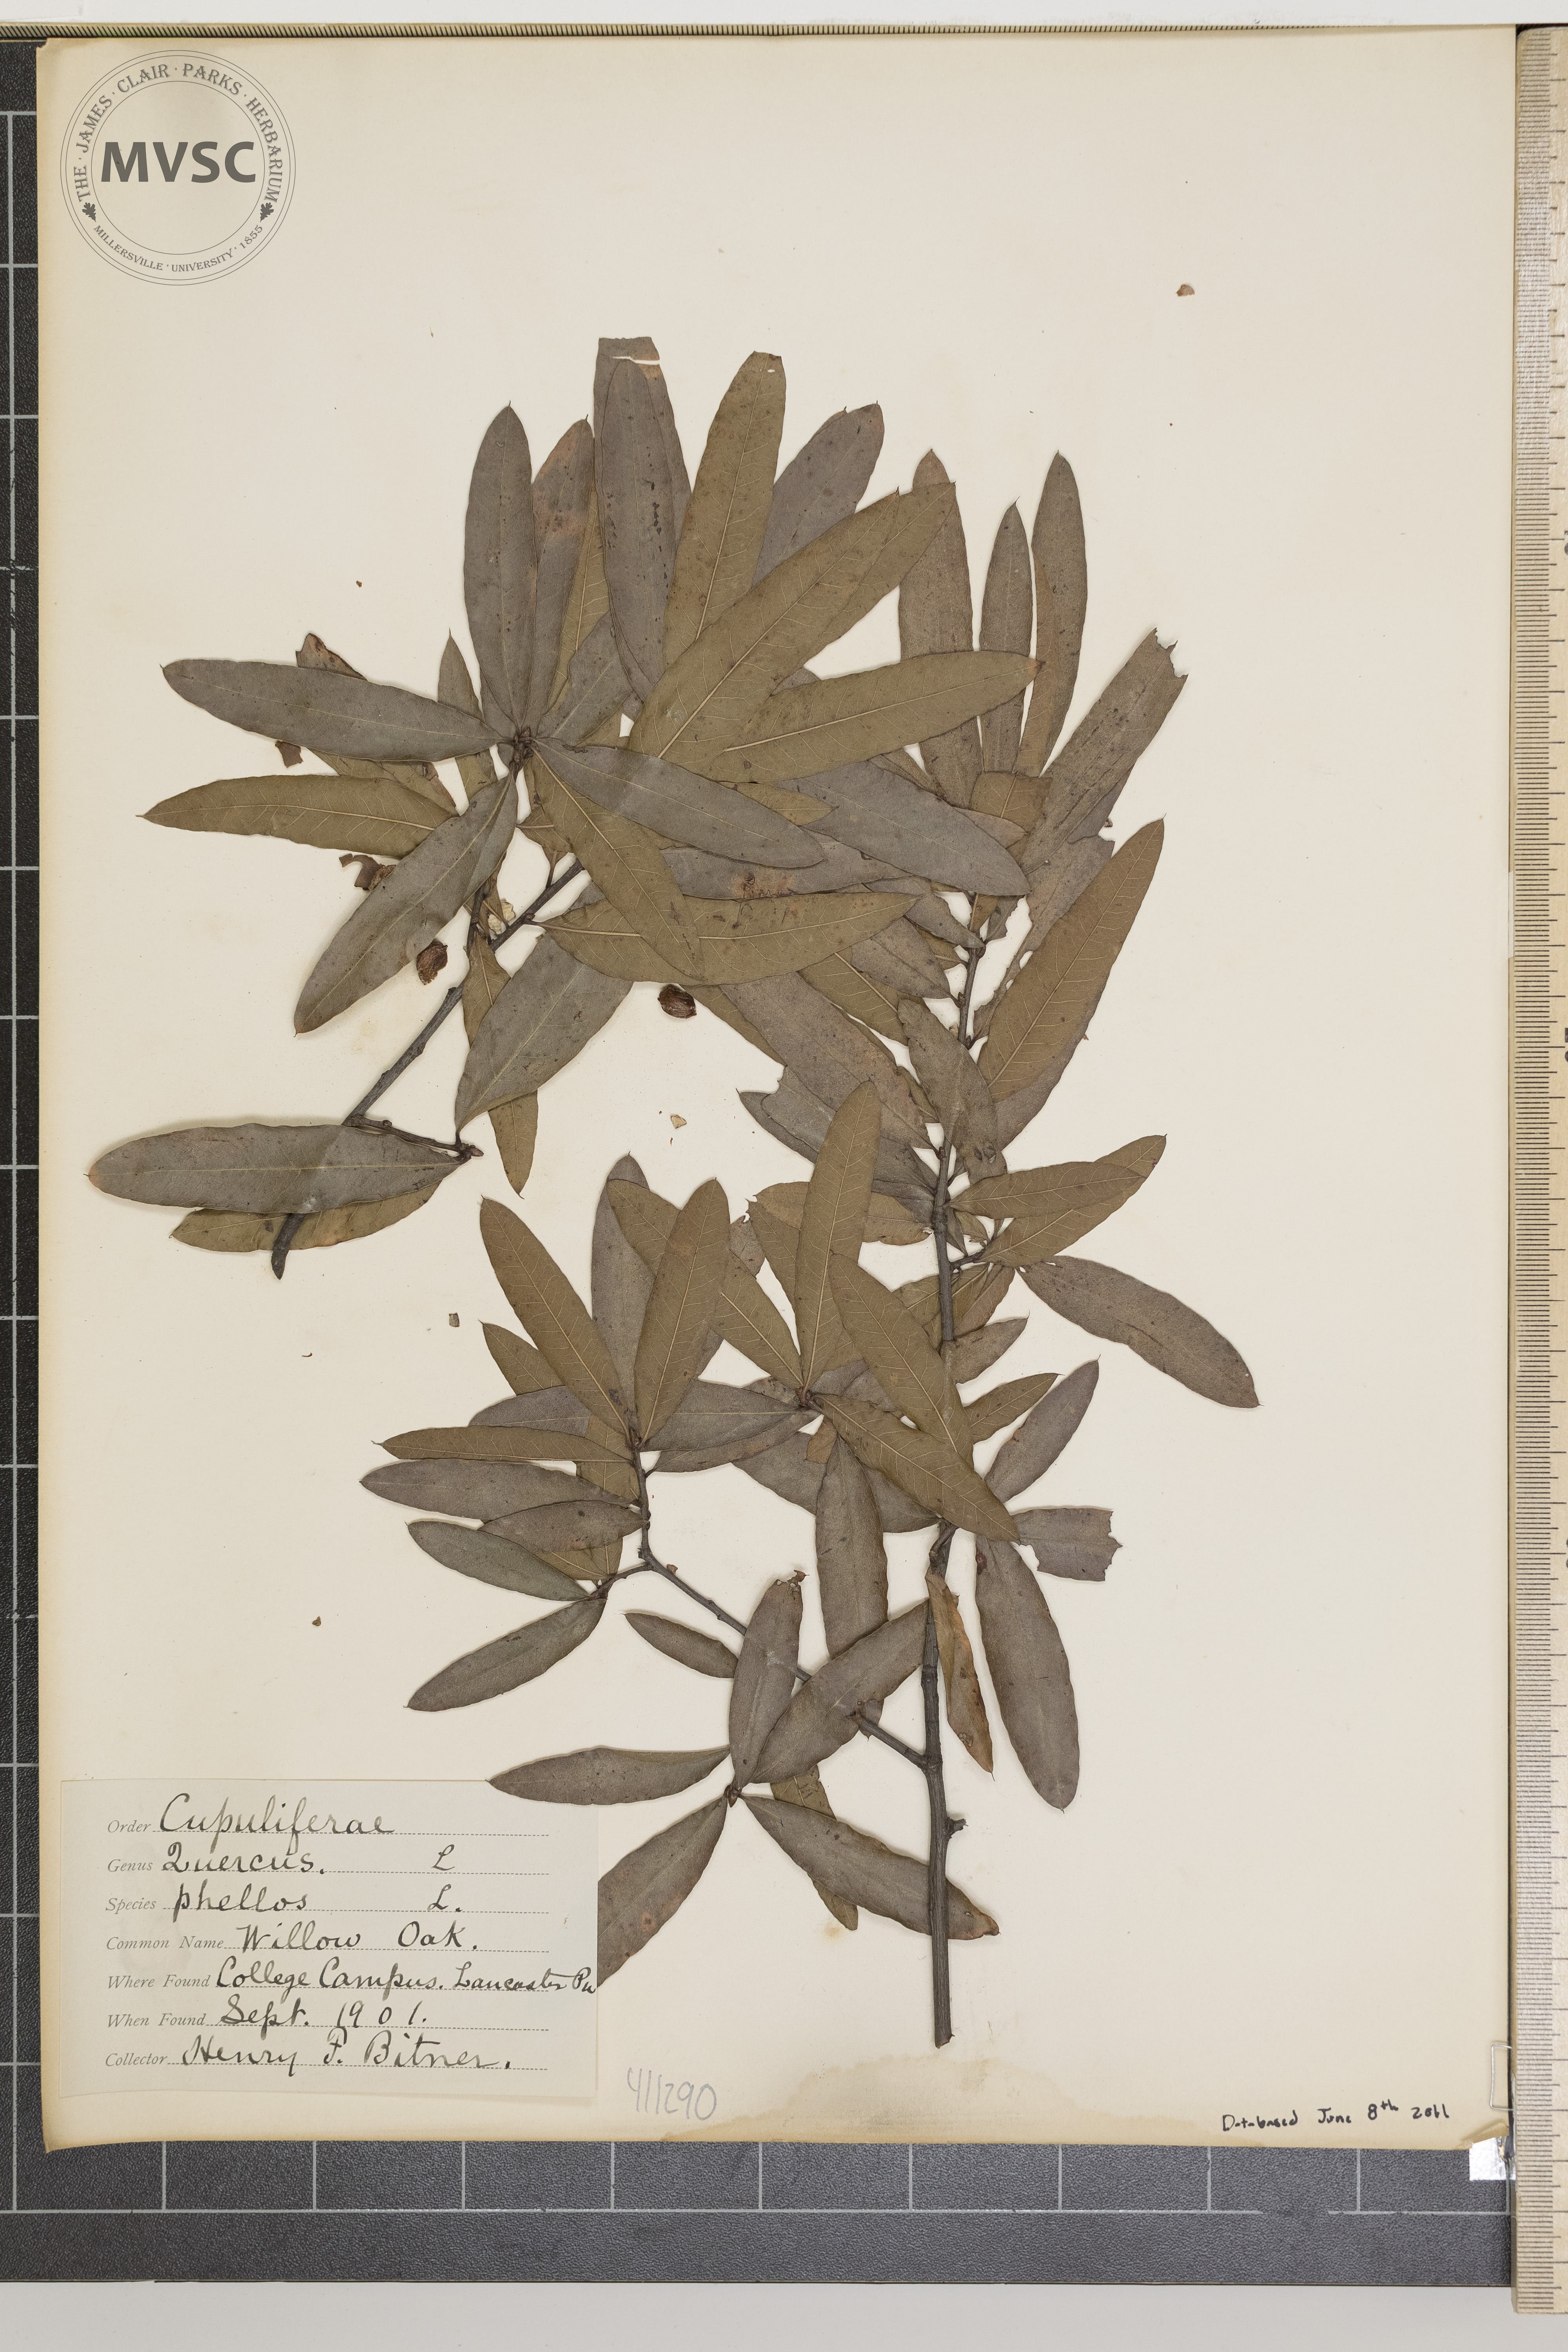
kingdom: Plantae
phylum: Tracheophyta
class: Magnoliopsida
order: Fagales
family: Fagaceae
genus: Quercus
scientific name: Quercus phellos
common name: Willow oak
